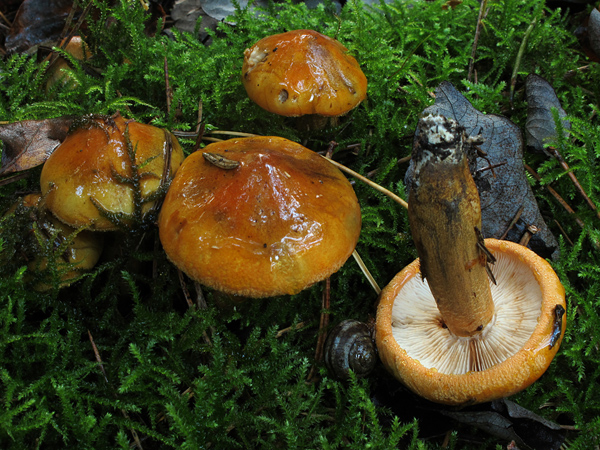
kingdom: Fungi
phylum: Basidiomycota
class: Agaricomycetes
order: Agaricales
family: Tricholomataceae
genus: Tricholoma
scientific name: Tricholoma aurantium
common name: orangegul ridderhat
